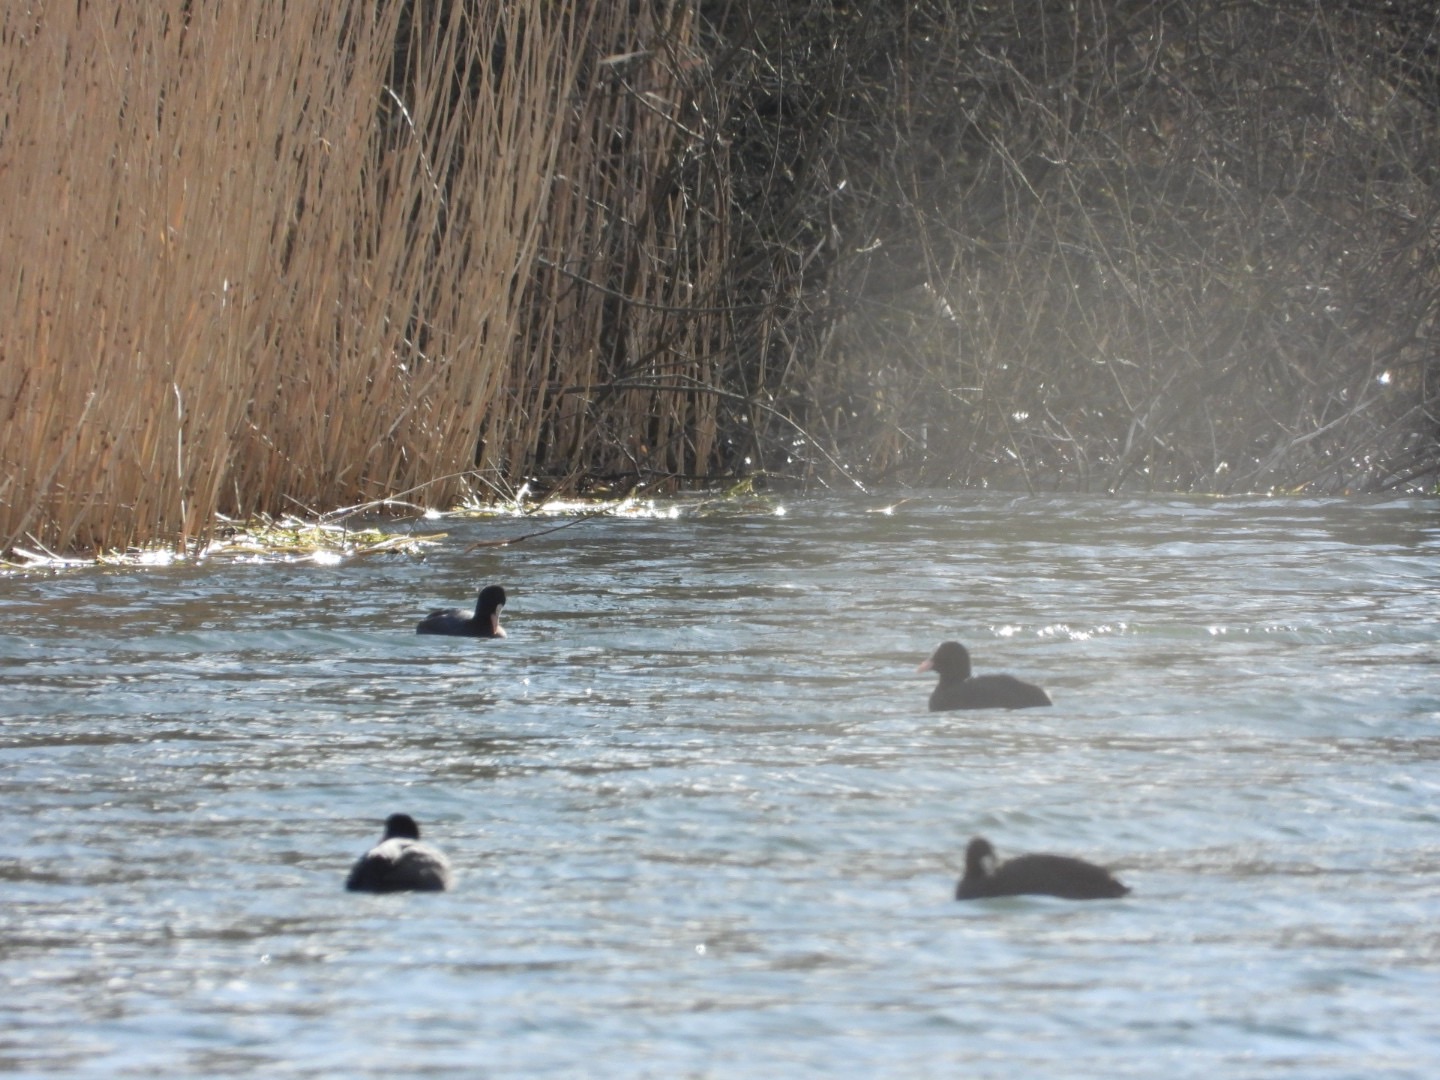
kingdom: Animalia
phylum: Chordata
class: Aves
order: Gruiformes
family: Rallidae
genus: Fulica
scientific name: Fulica atra
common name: Blishøne
